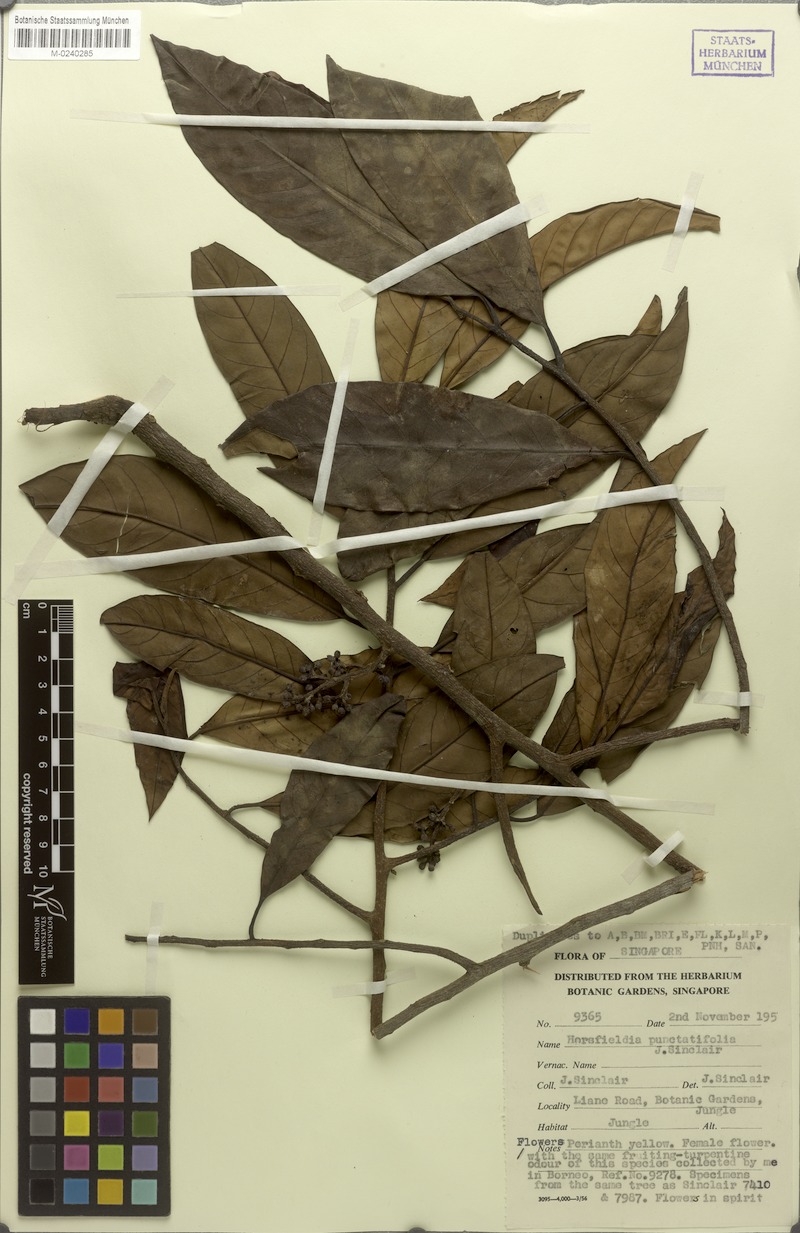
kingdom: Plantae
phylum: Tracheophyta
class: Magnoliopsida
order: Magnoliales
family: Myristicaceae
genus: Horsfieldia
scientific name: Horsfieldia punctatifolia
